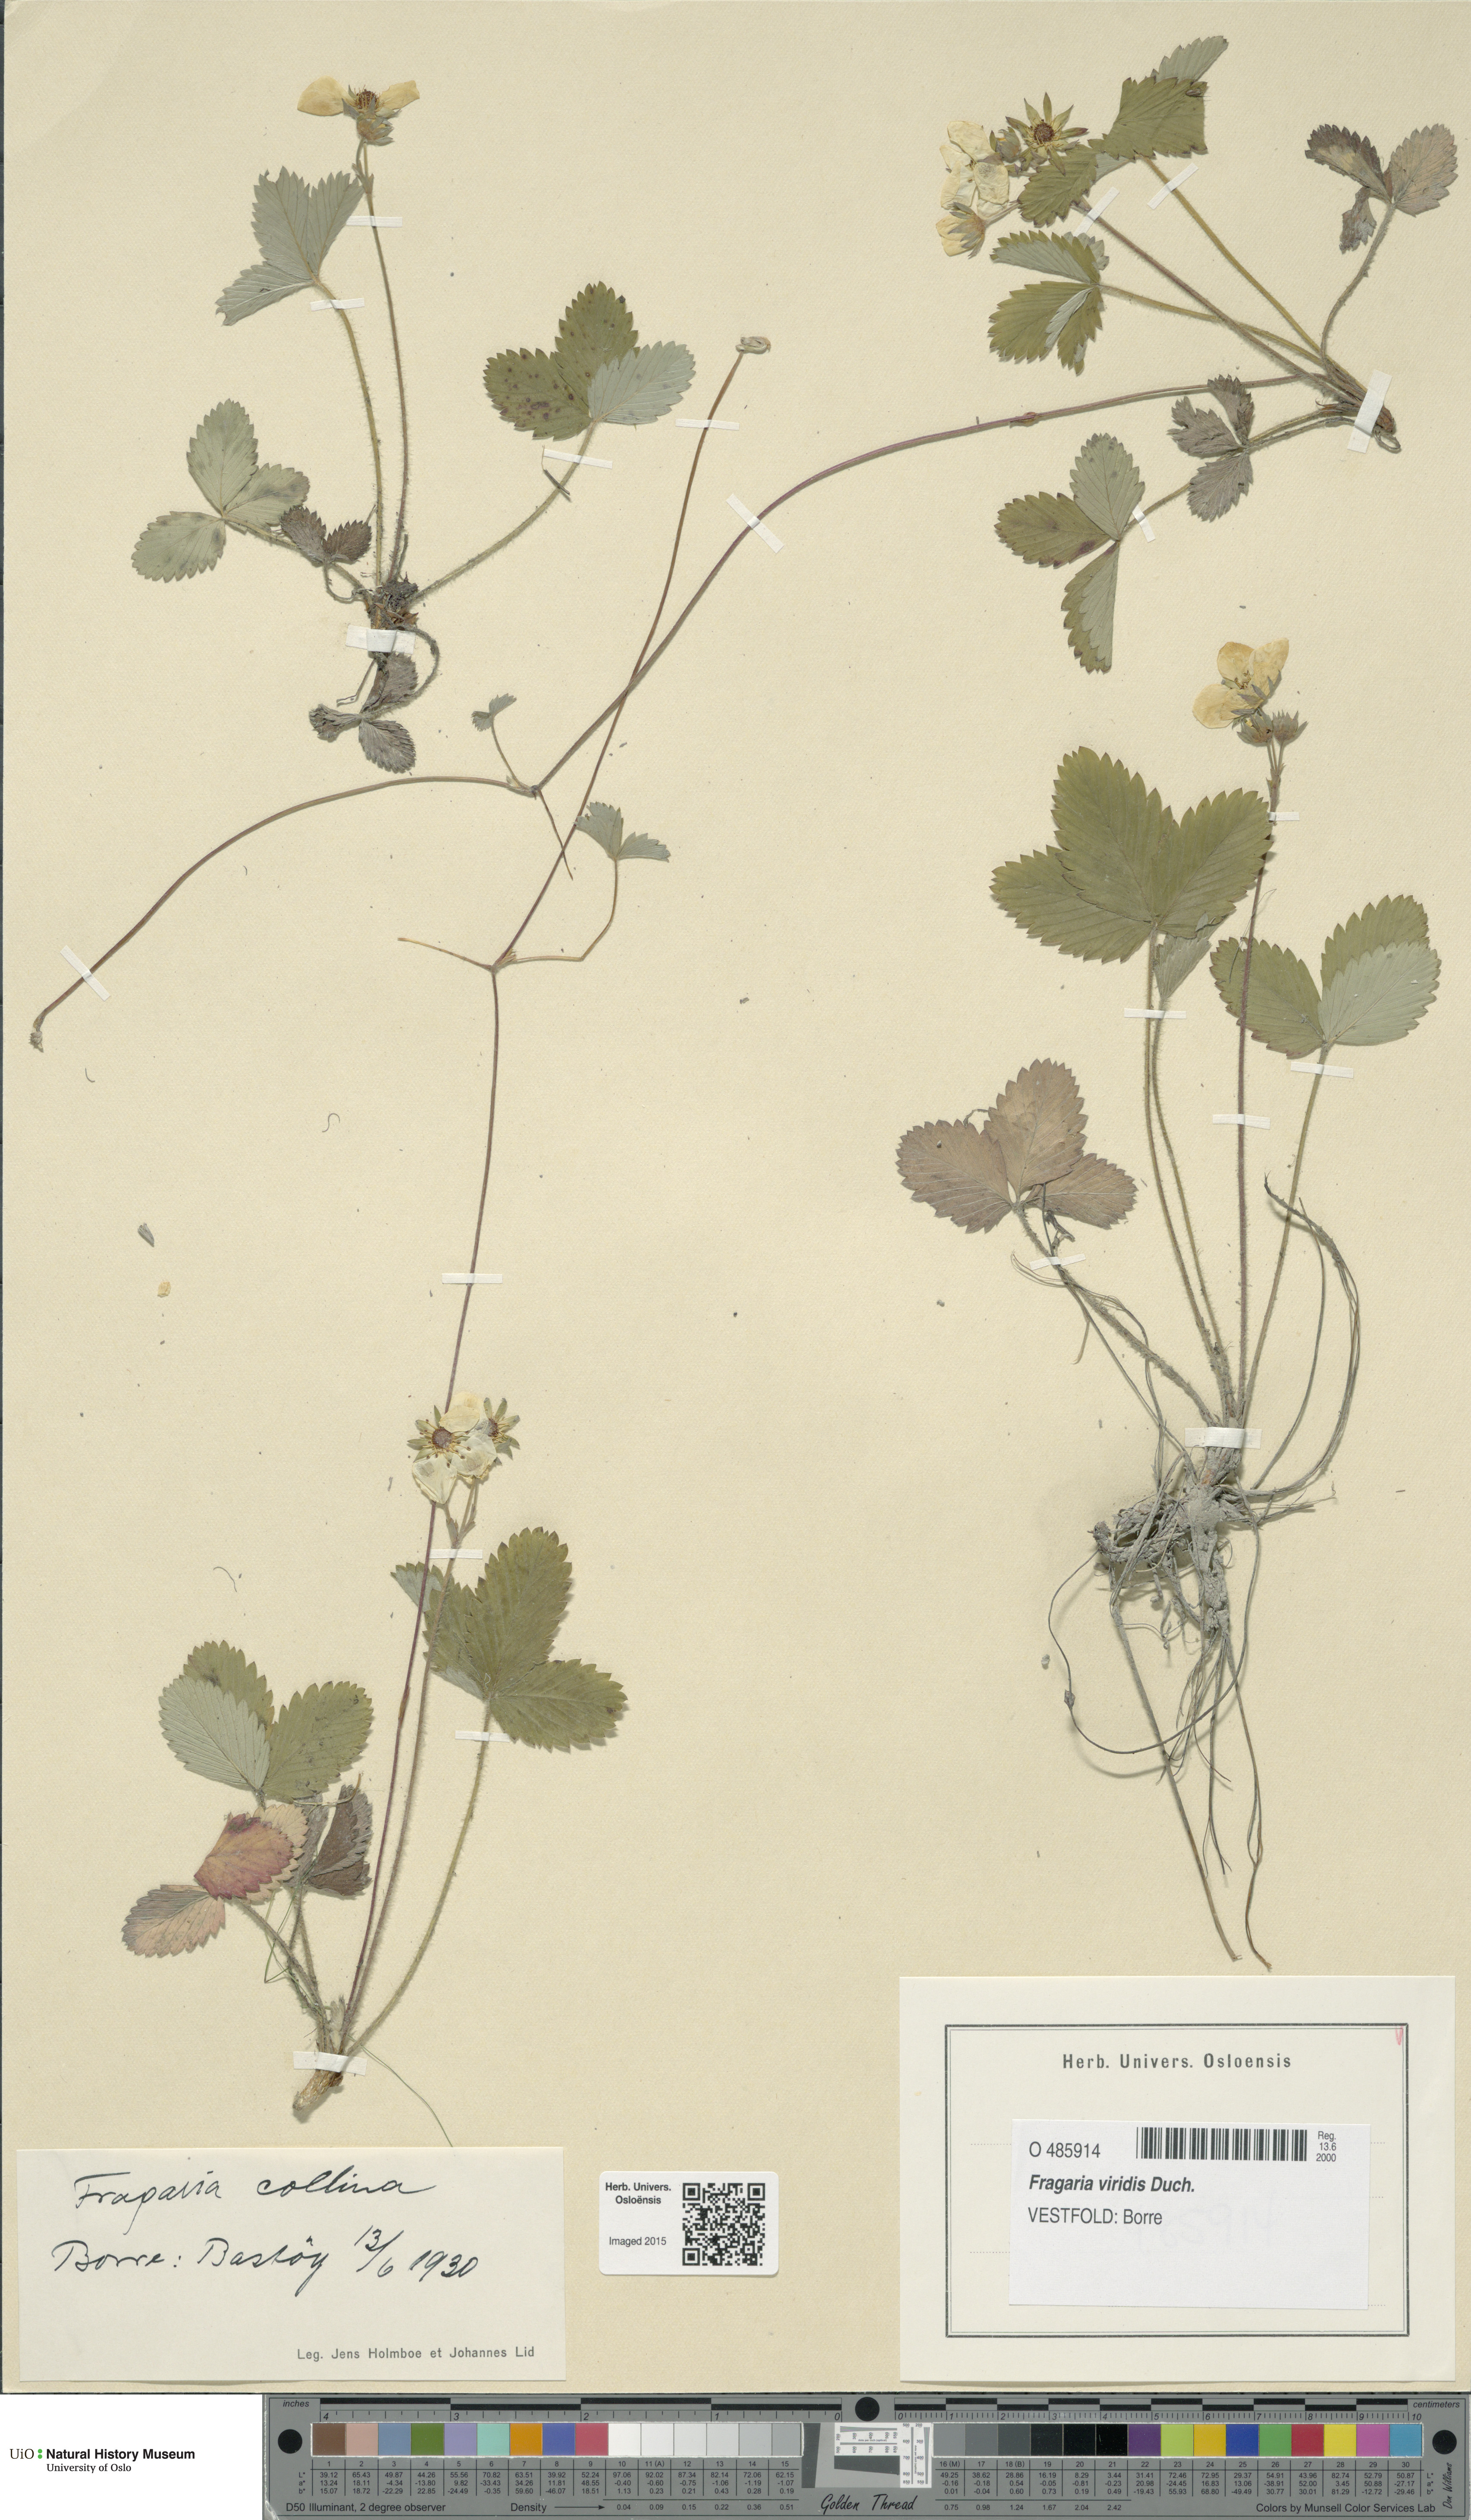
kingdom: Plantae
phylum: Tracheophyta
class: Magnoliopsida
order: Rosales
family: Rosaceae
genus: Fragaria
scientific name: Fragaria viridis
